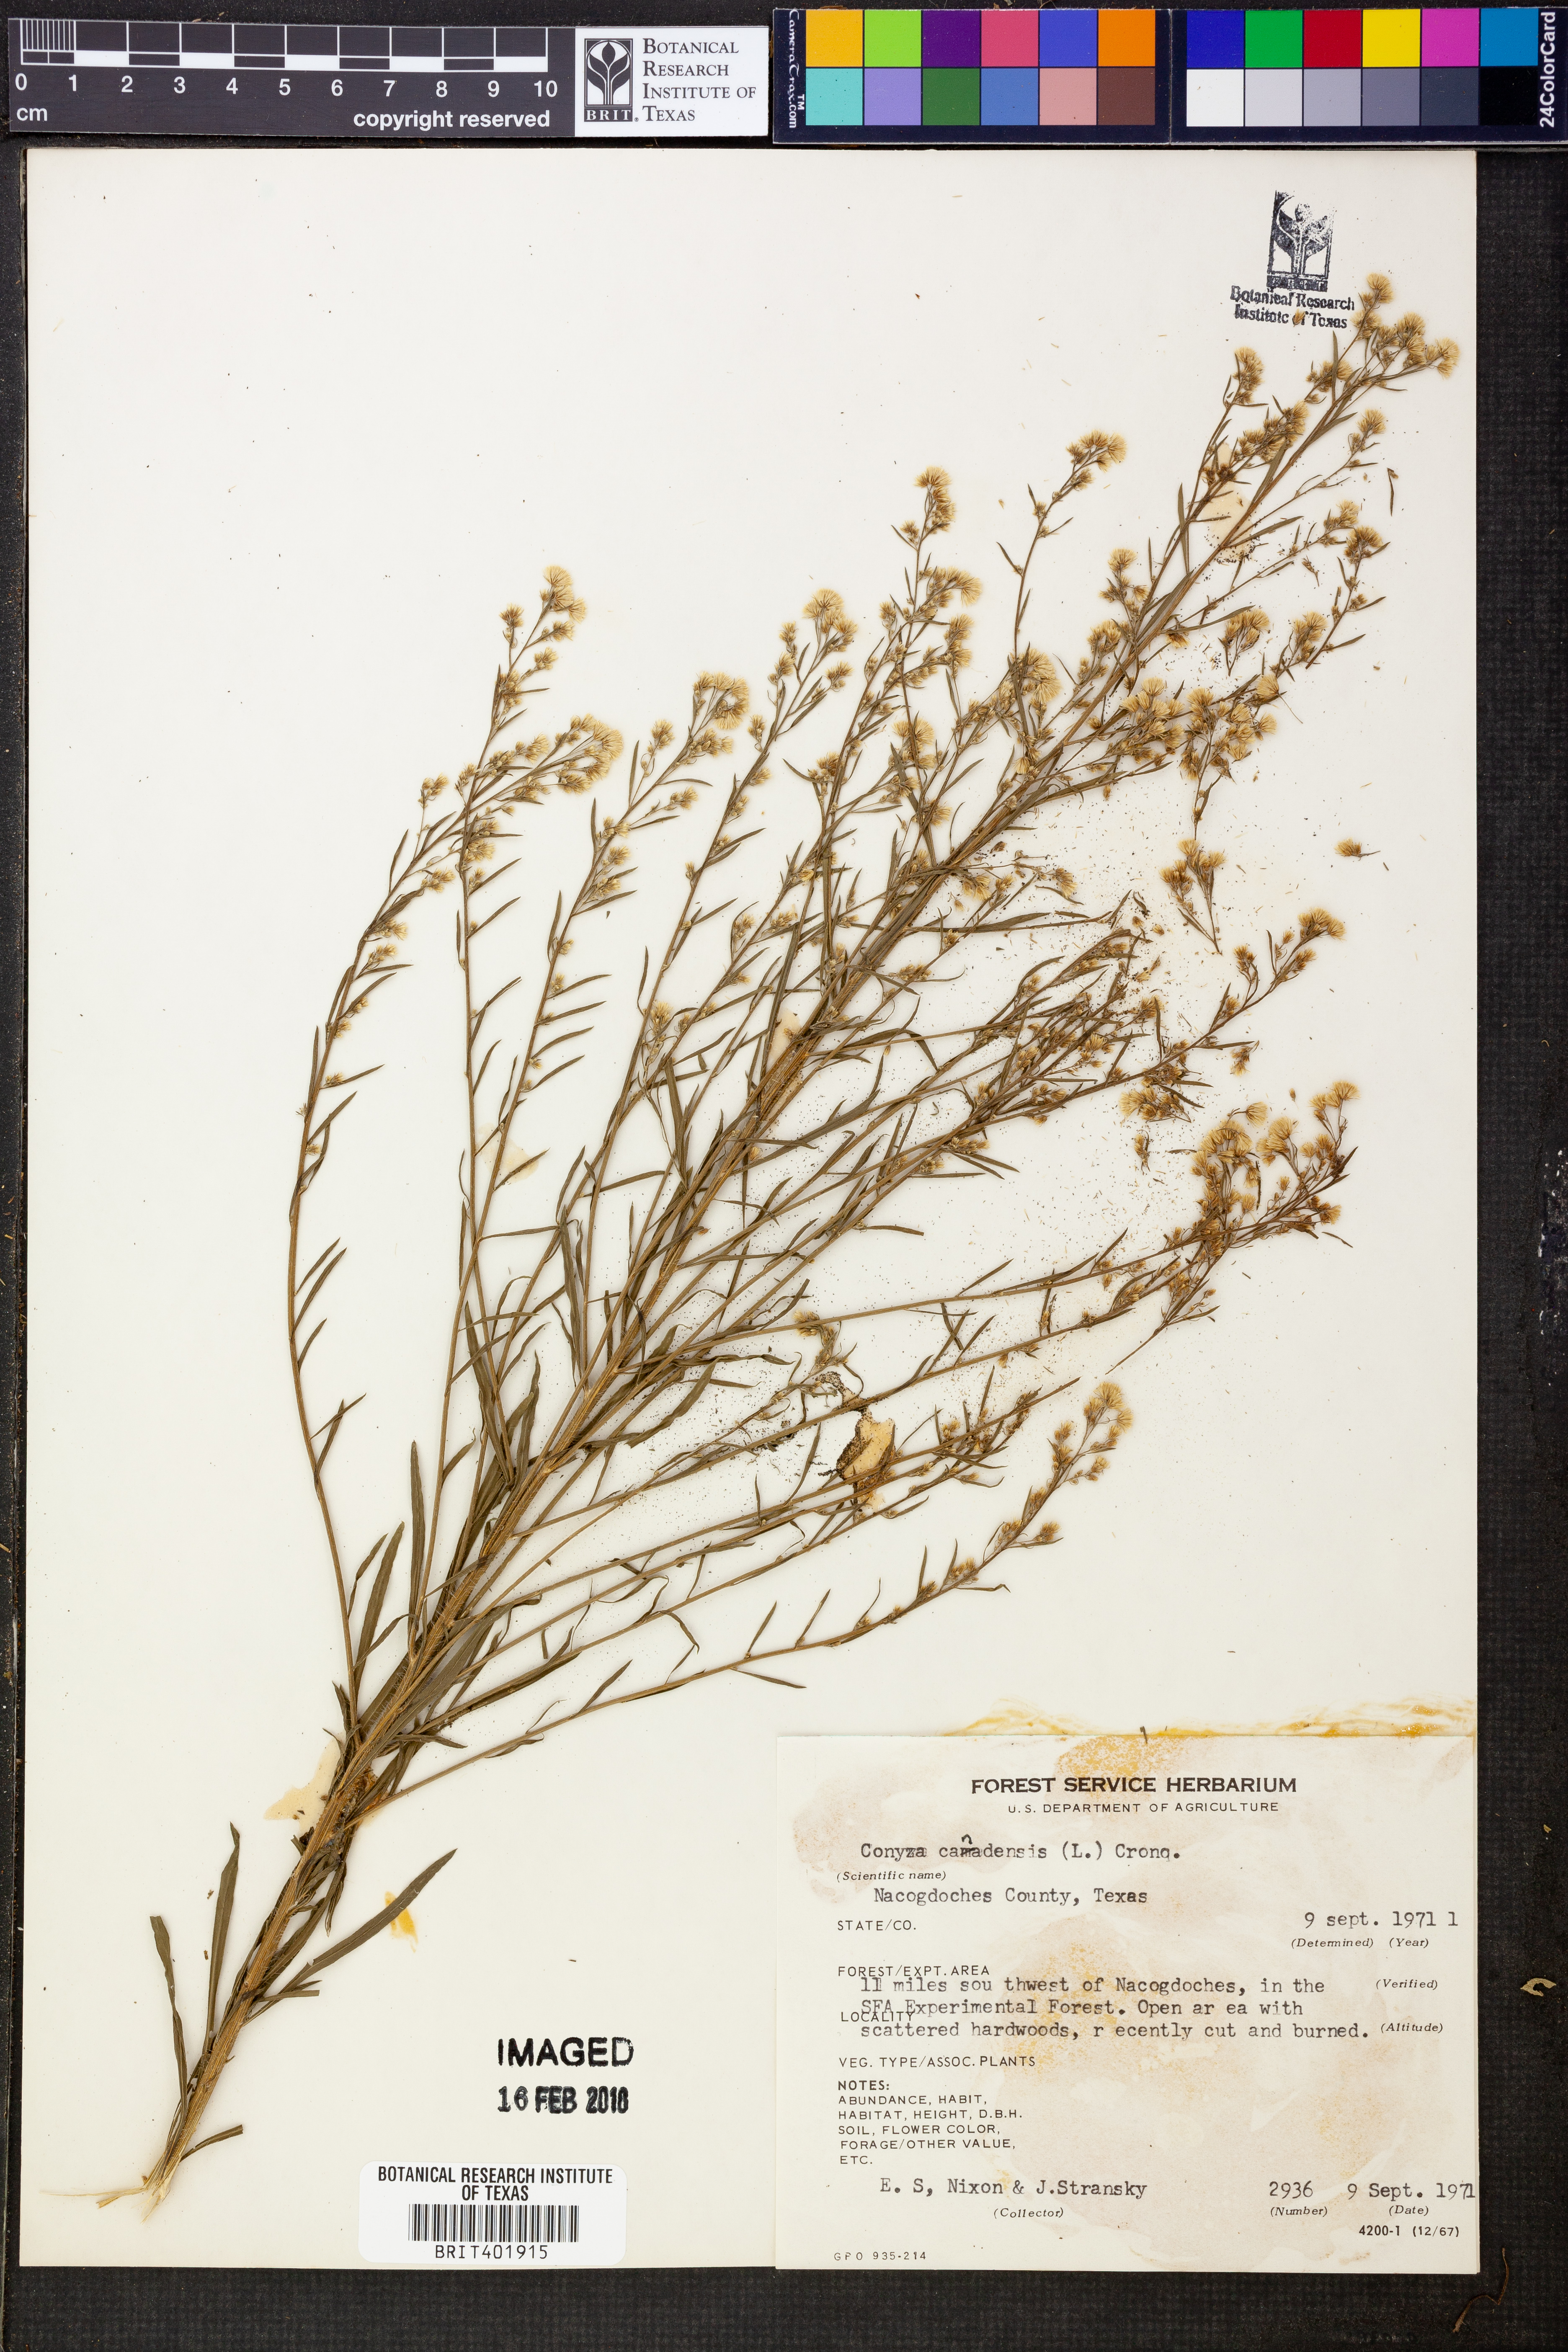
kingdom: Plantae
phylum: Tracheophyta
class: Magnoliopsida
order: Asterales
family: Asteraceae
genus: Erigeron
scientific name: Erigeron canadensis
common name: Canadian fleabane
